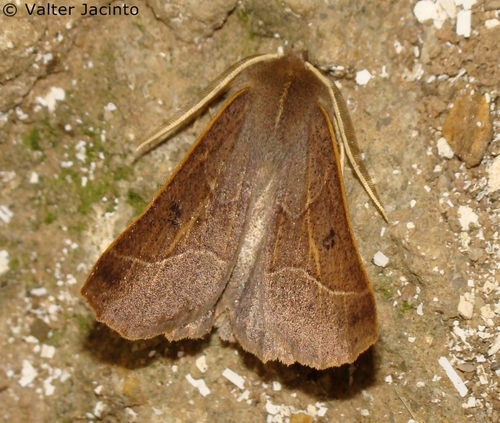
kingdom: Animalia
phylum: Arthropoda
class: Insecta
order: Lepidoptera
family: Geometridae
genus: Crocallis
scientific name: Crocallis auberti
